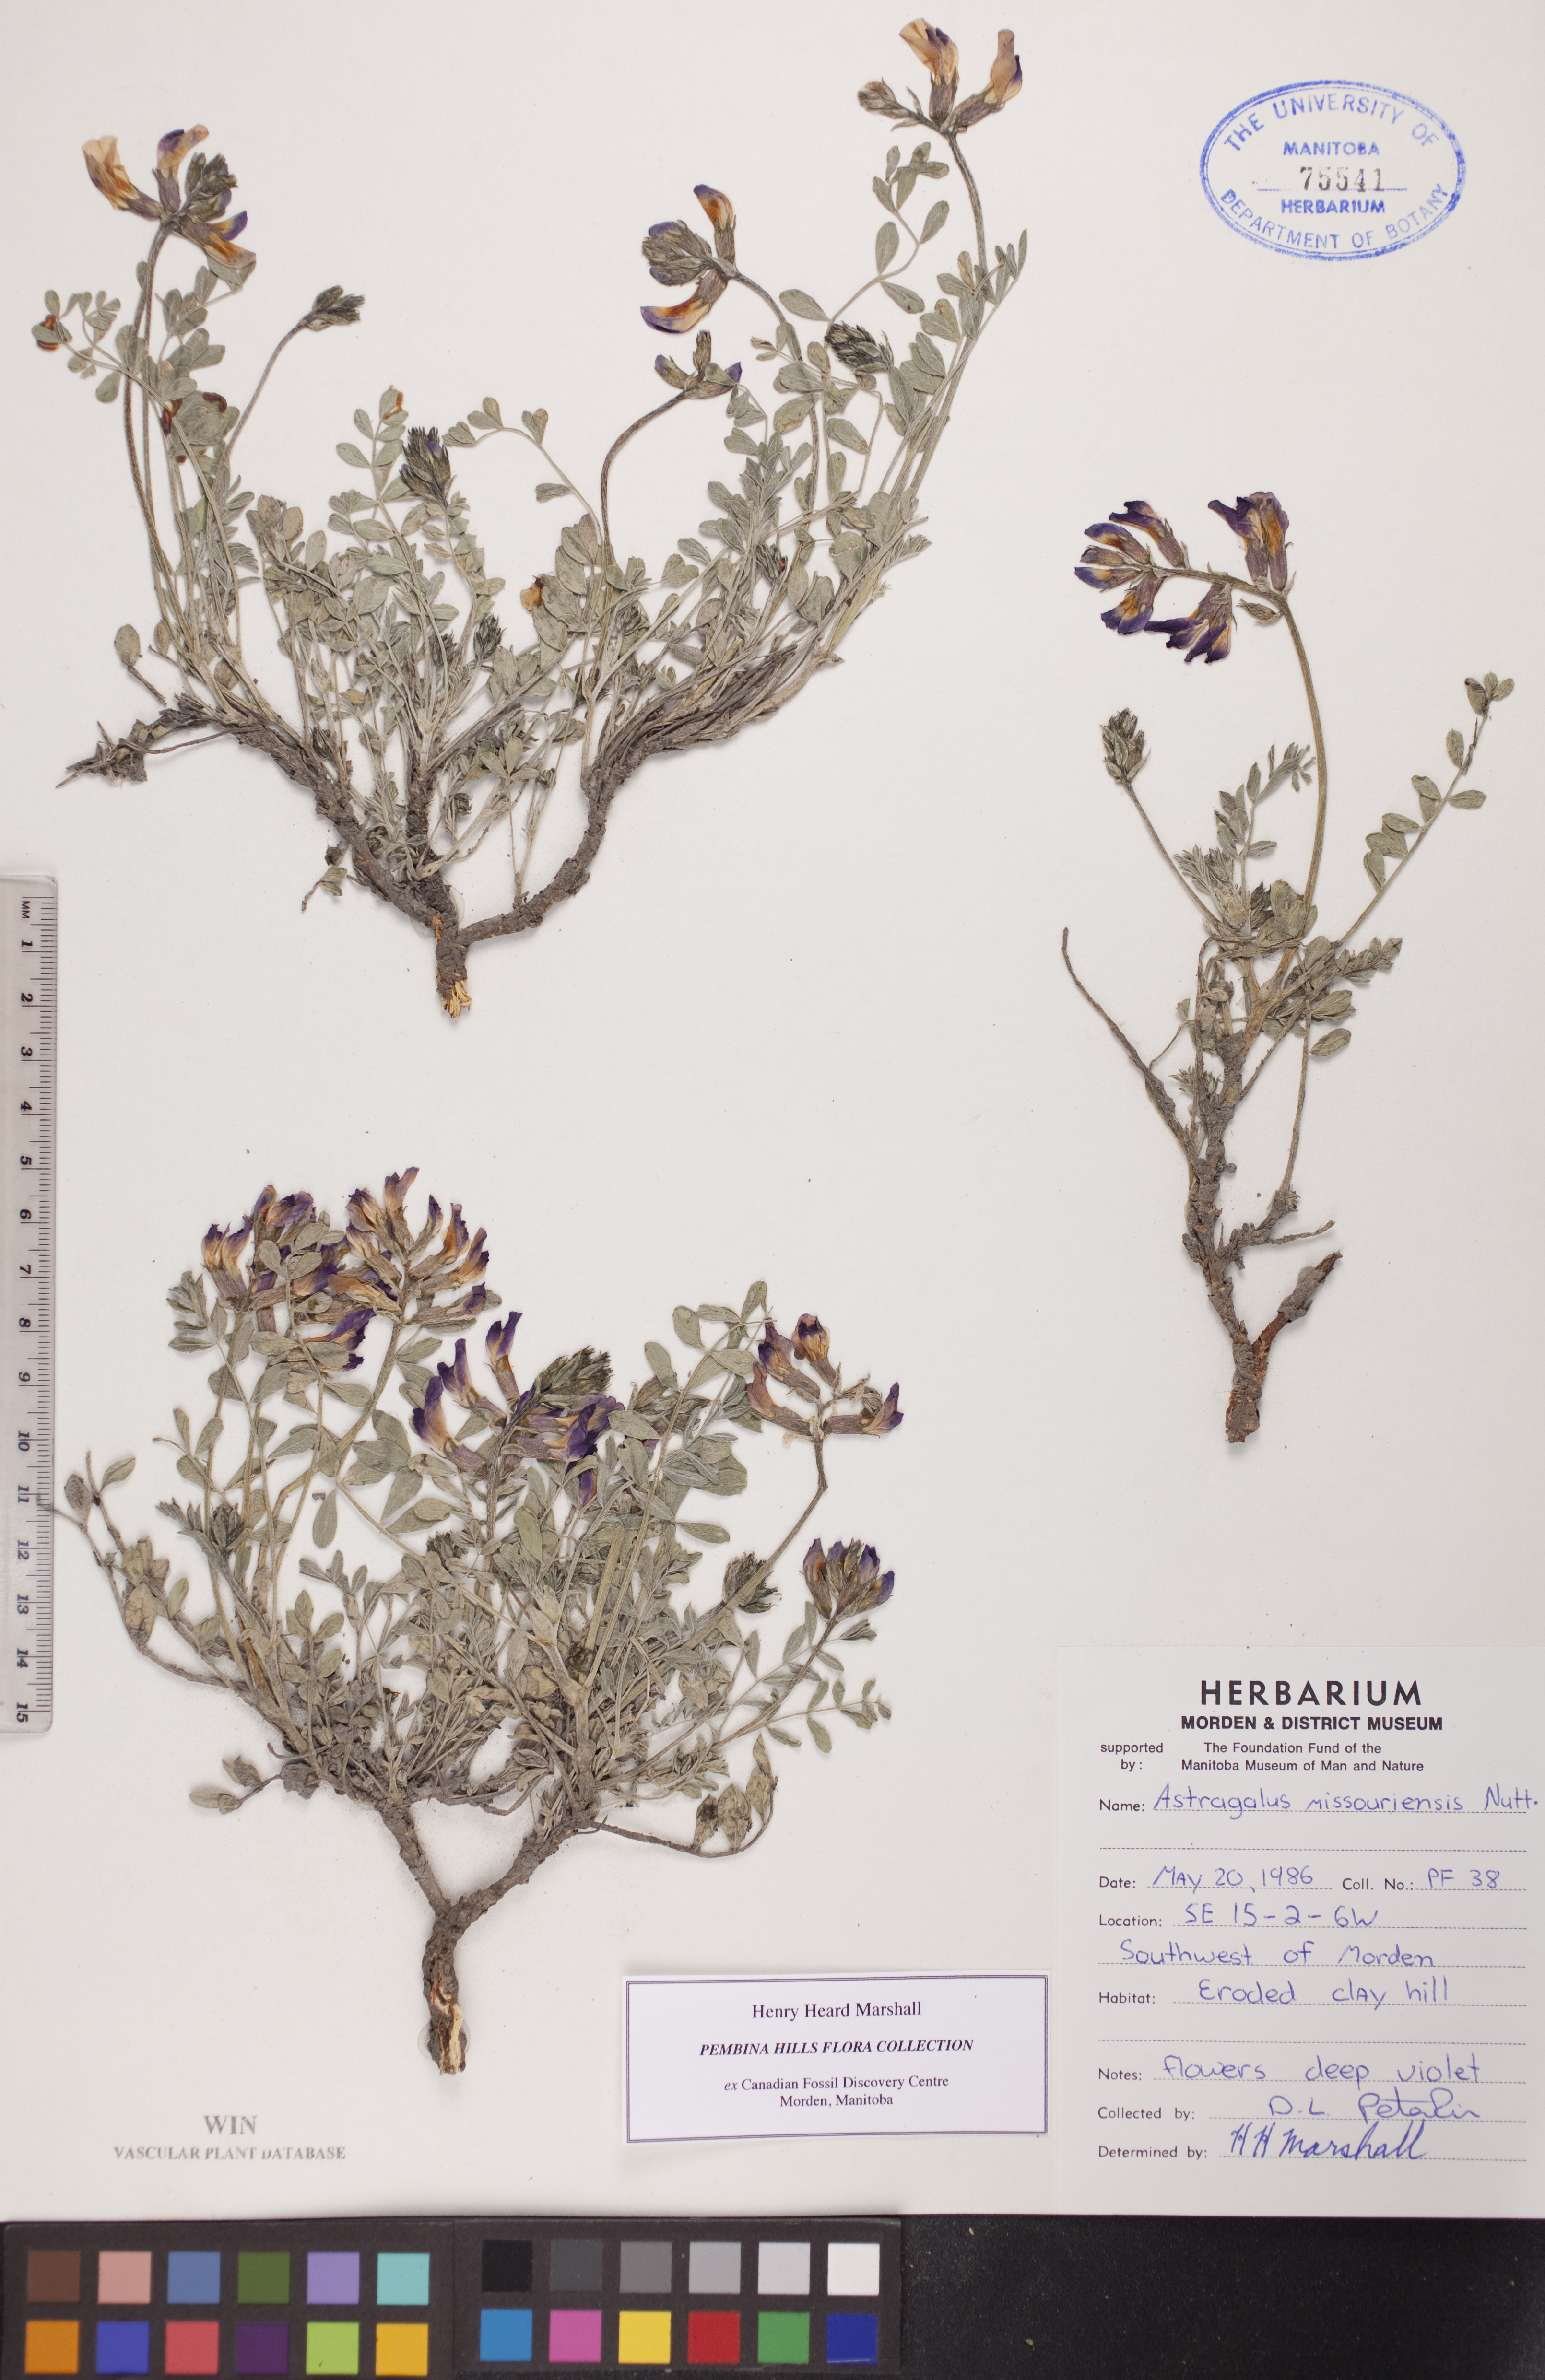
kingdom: Plantae
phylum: Tracheophyta
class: Magnoliopsida
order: Fabales
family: Fabaceae
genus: Astragalus
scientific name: Astragalus missouriensis
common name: Missouri milk-vetch
